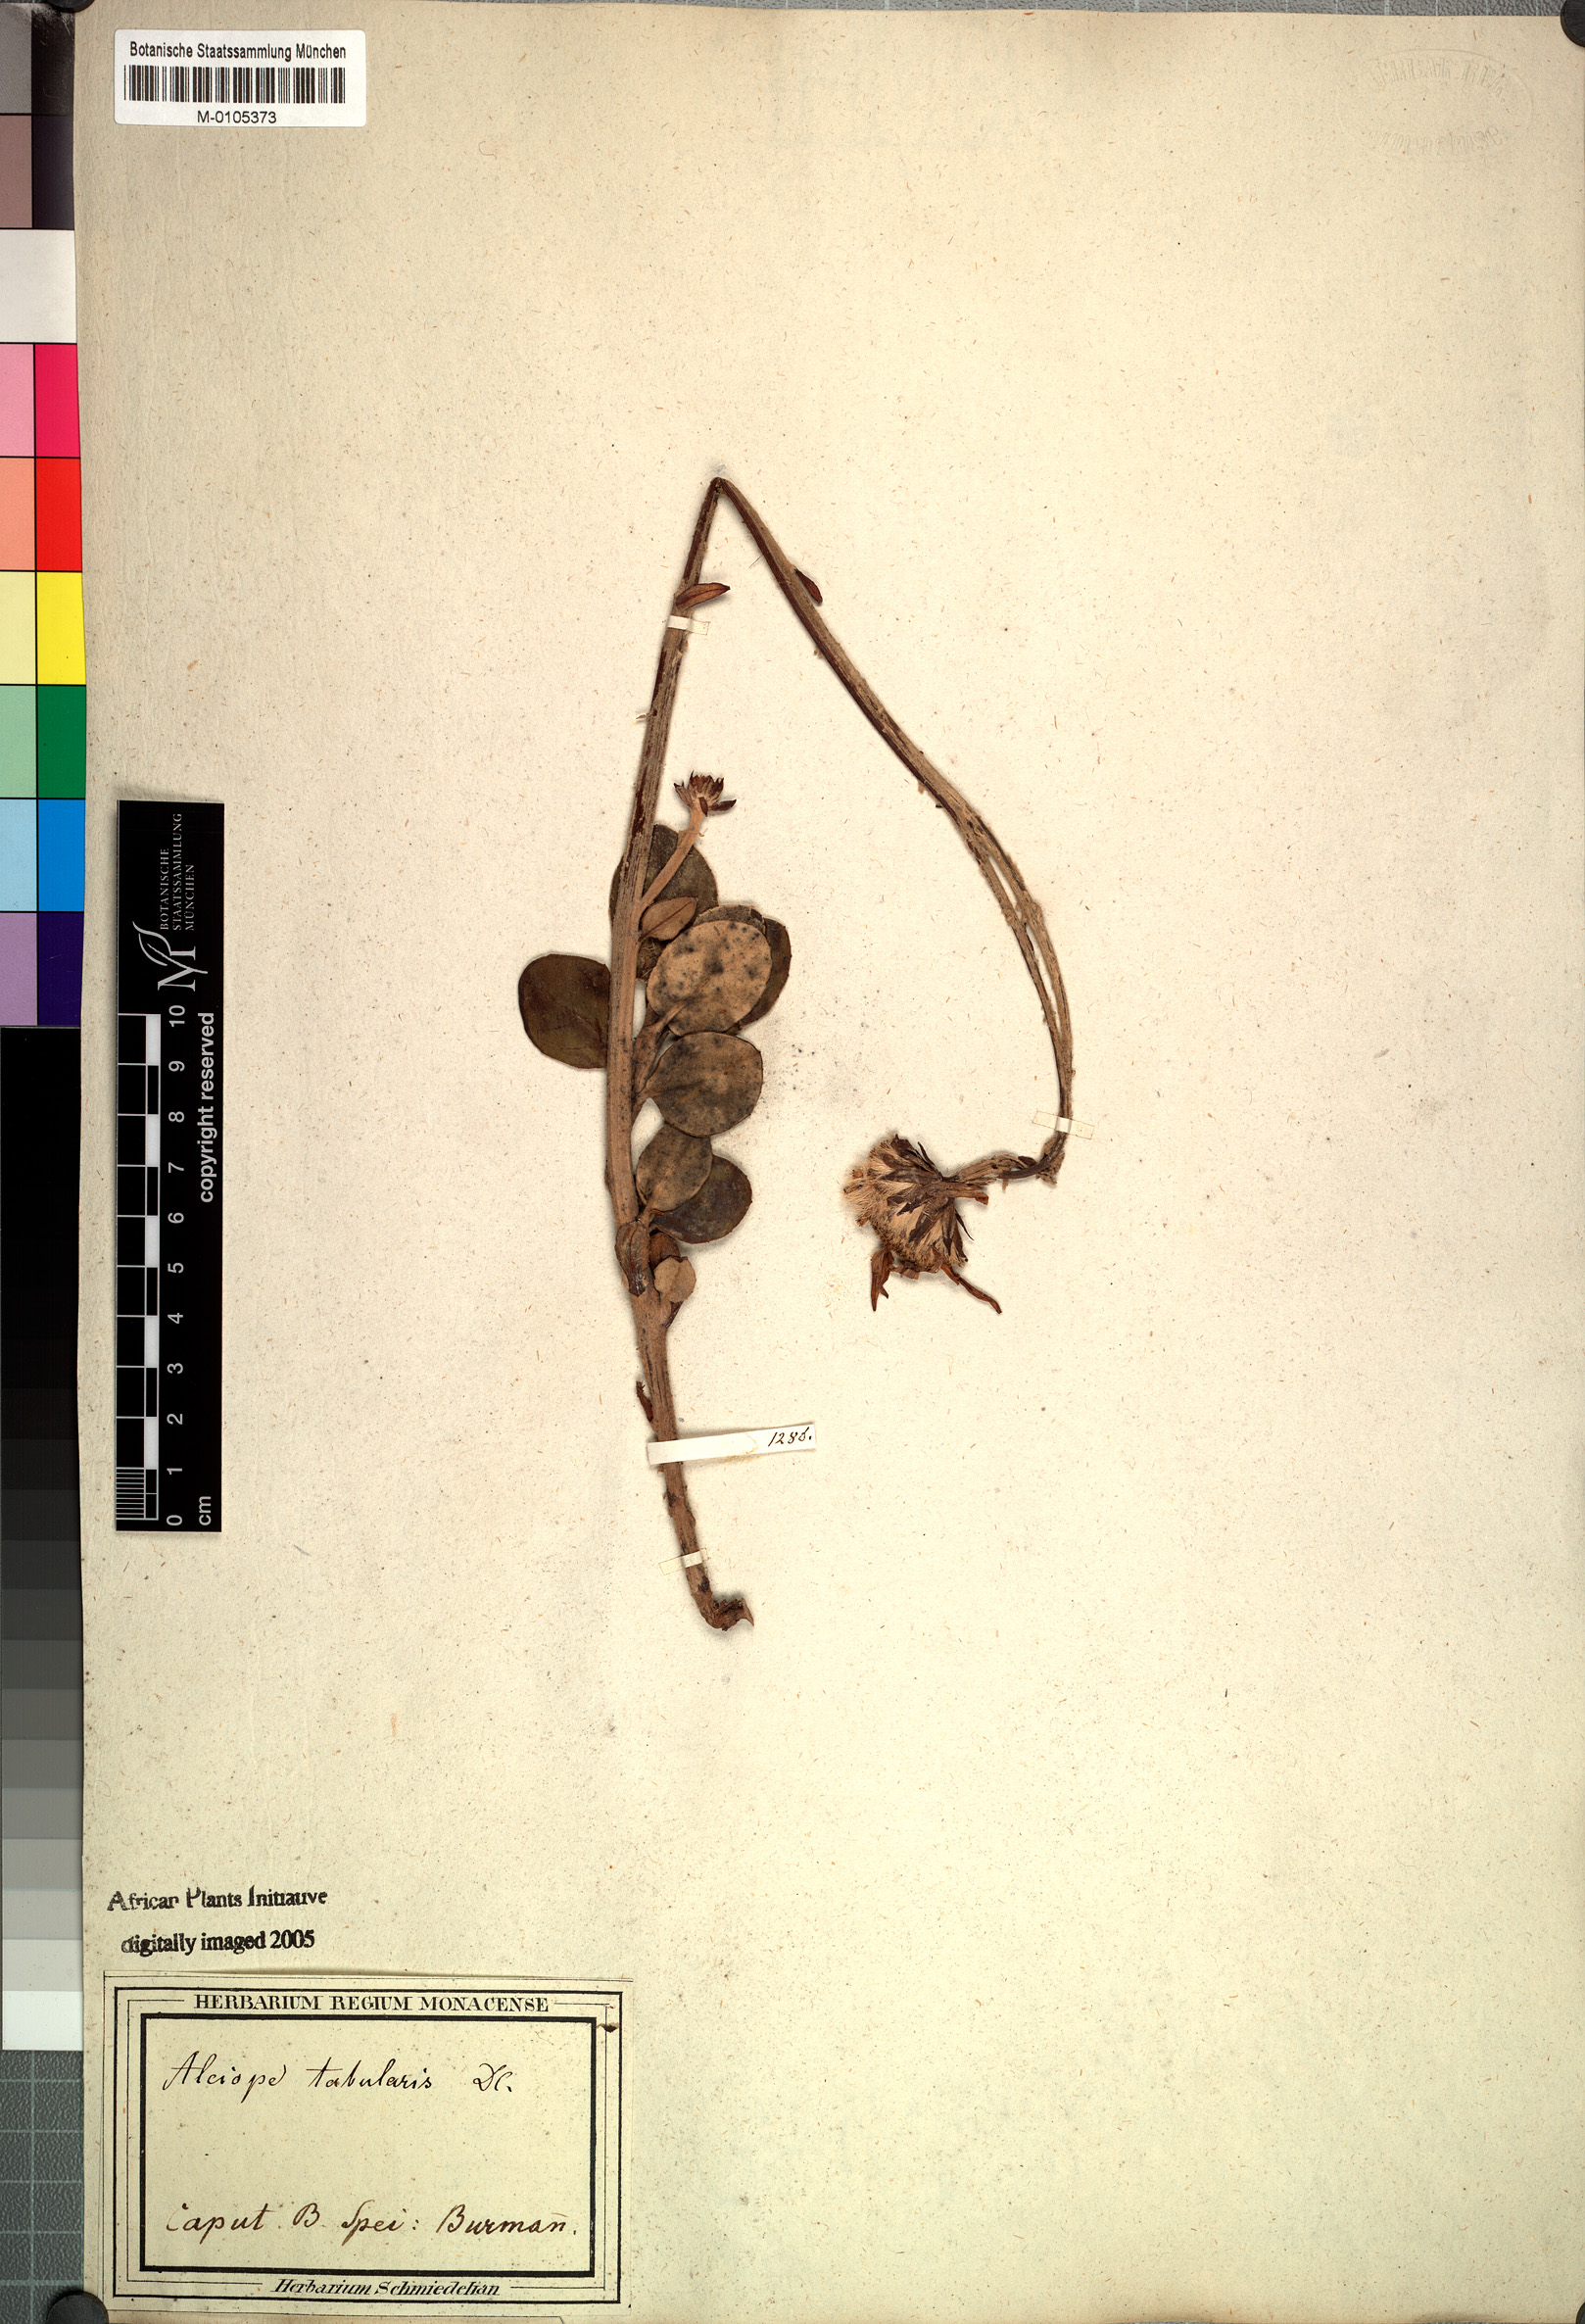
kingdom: Plantae
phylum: Tracheophyta
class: Magnoliopsida
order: Asterales
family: Asteraceae
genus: Capelio
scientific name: Capelio tabularis
